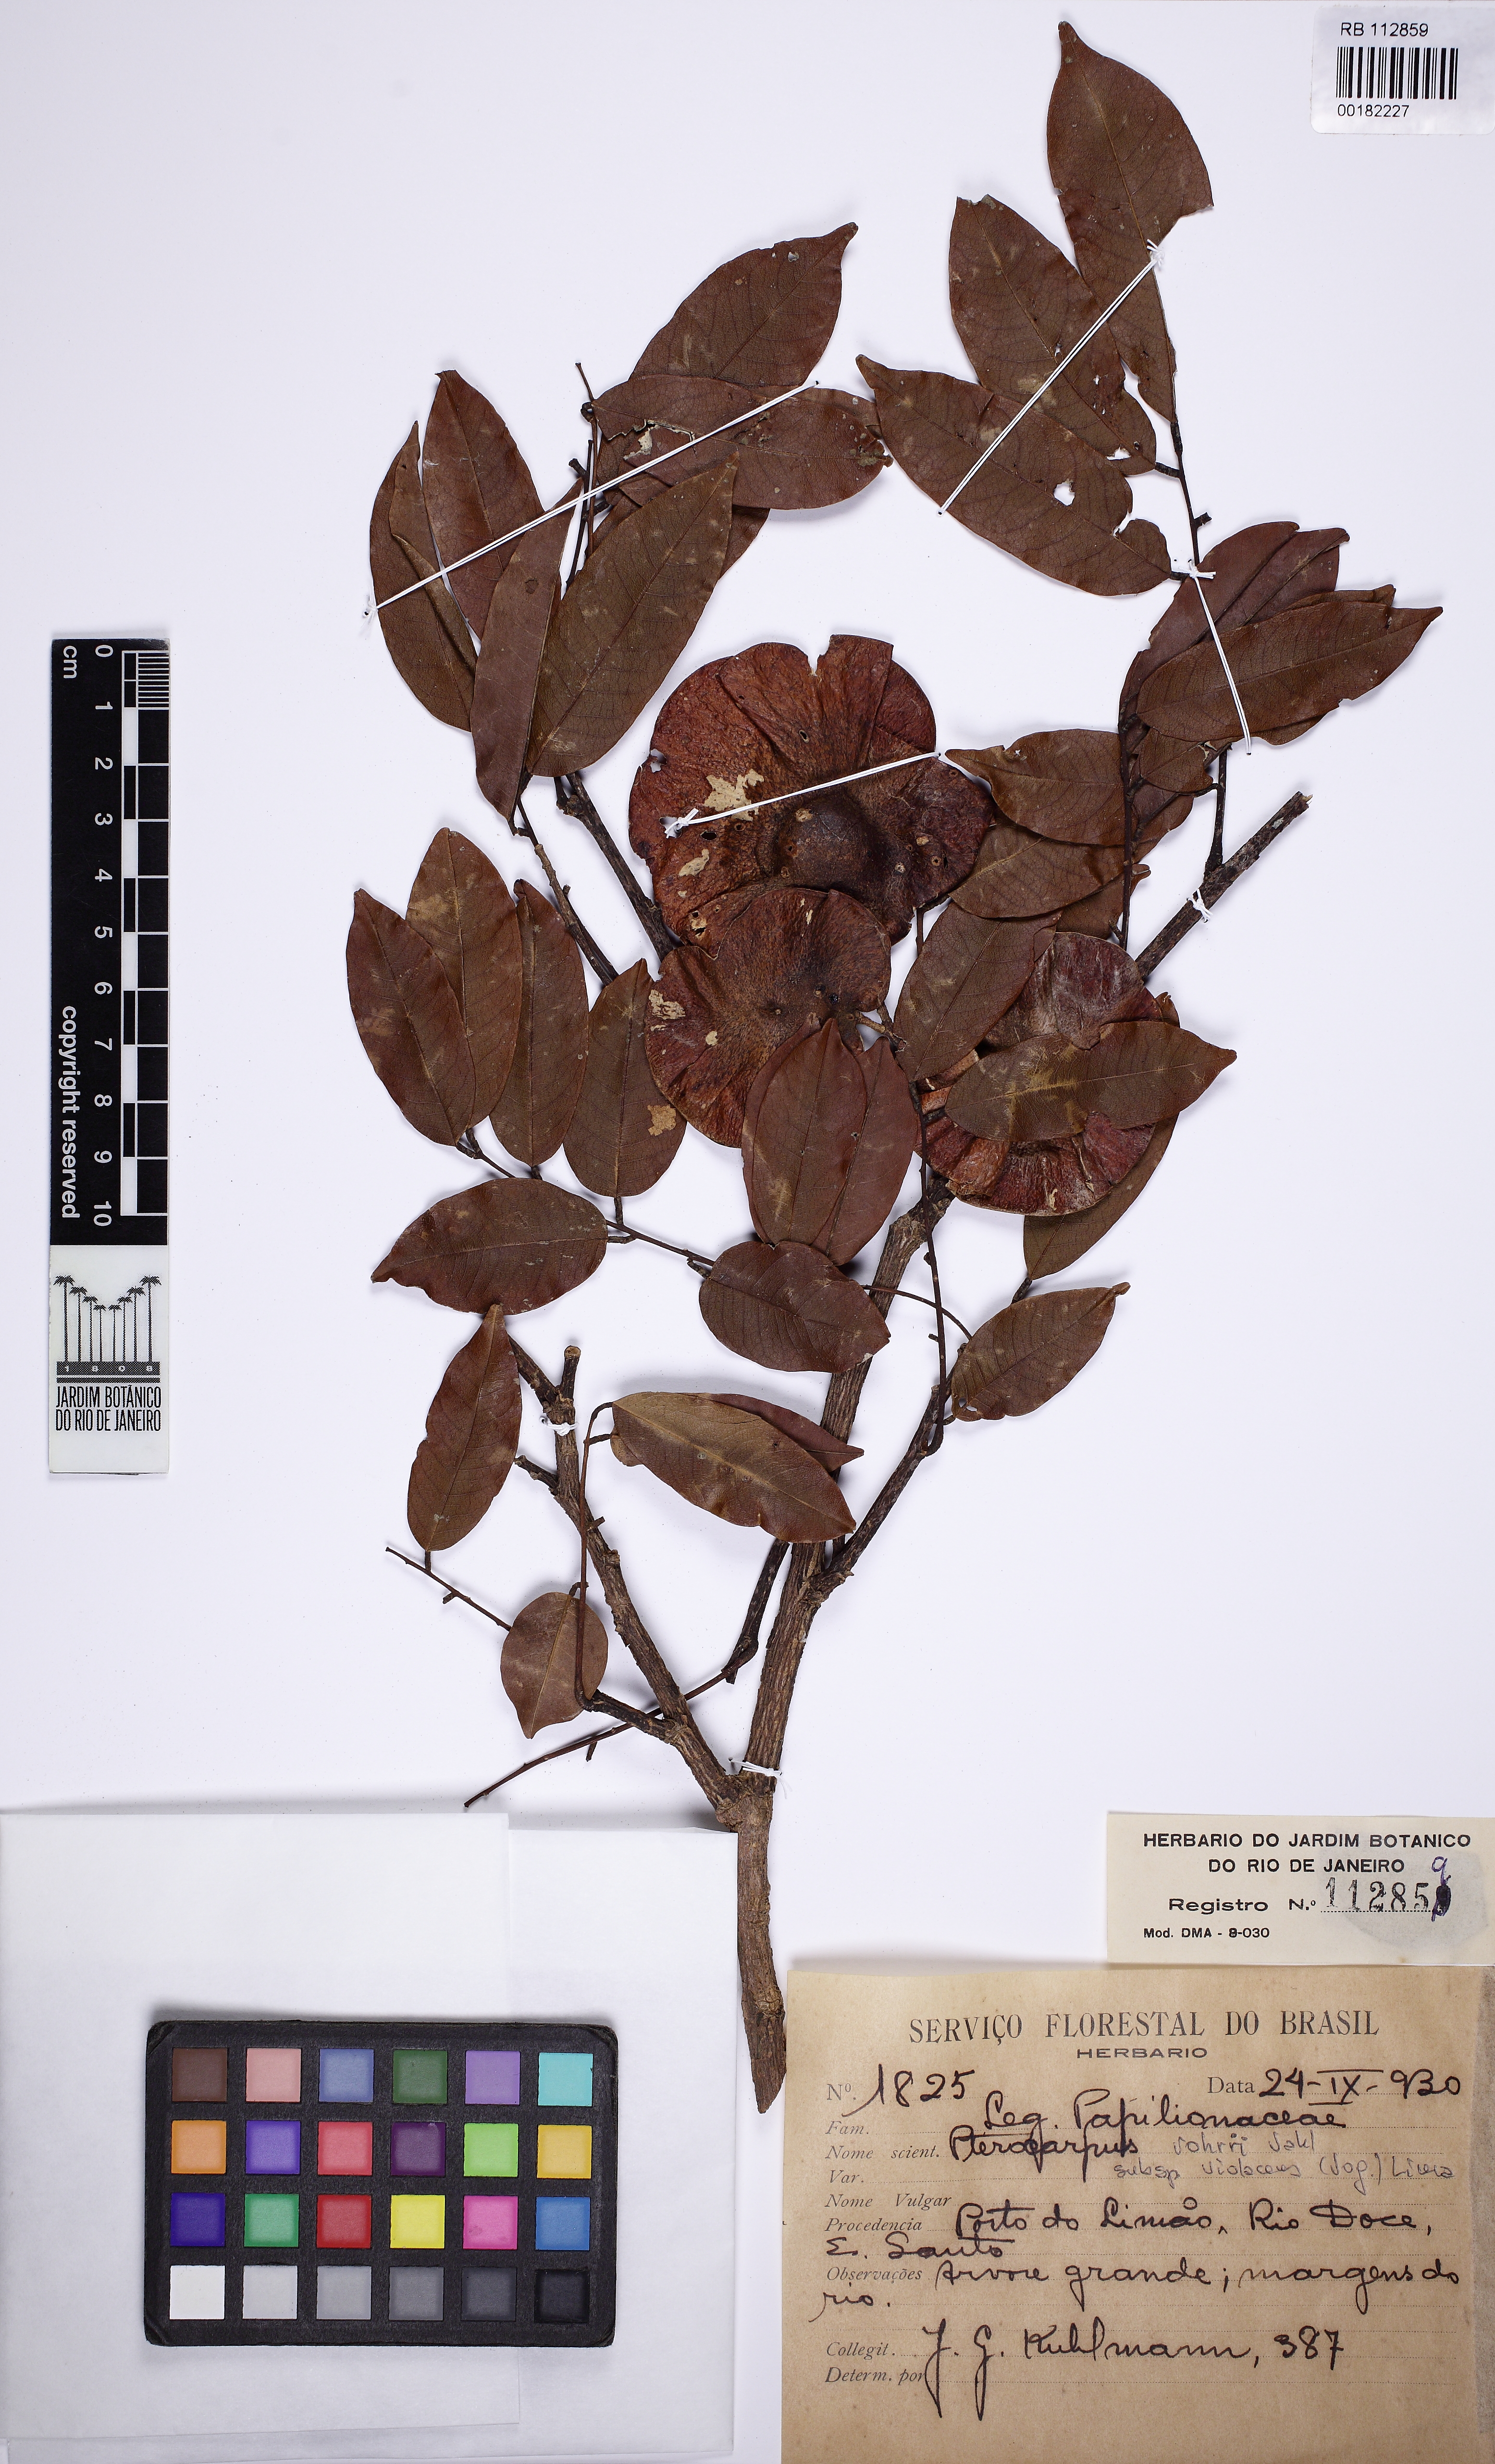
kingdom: Plantae
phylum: Tracheophyta
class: Magnoliopsida
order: Fabales
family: Fabaceae
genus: Pterocarpus
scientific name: Pterocarpus indicus
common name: Burmese rosewood
